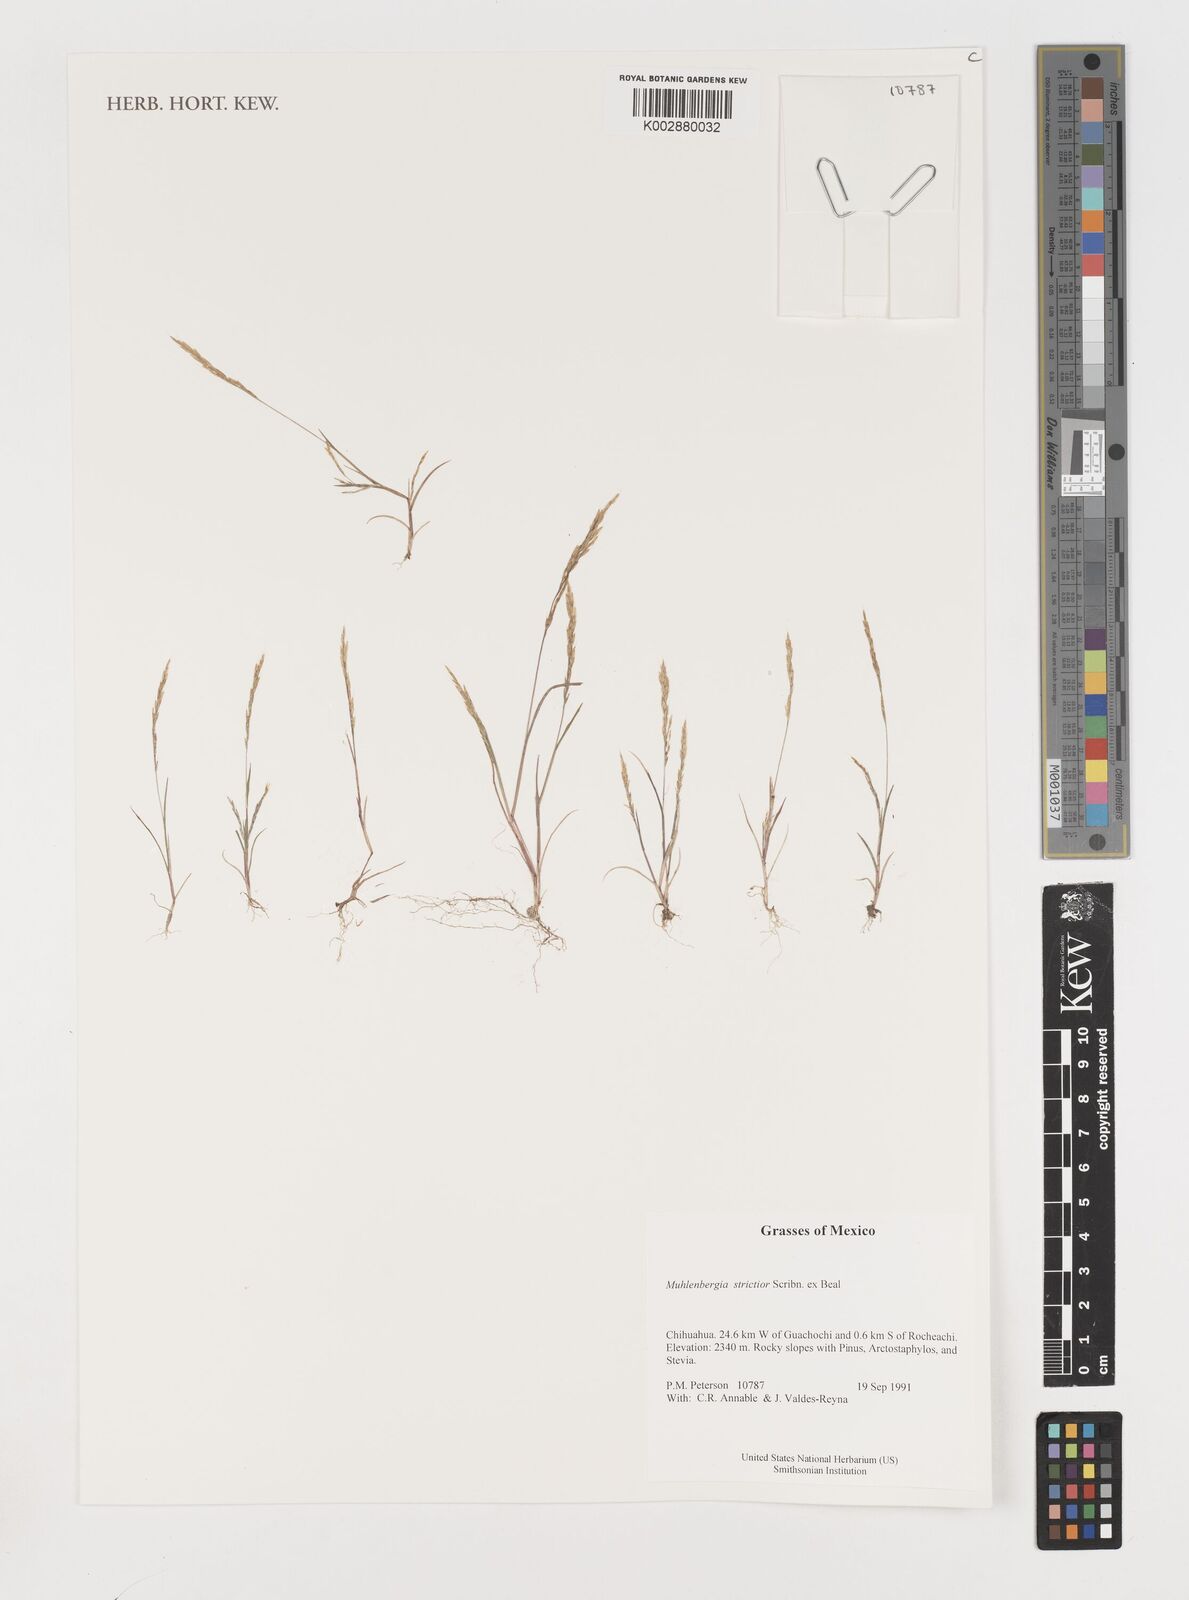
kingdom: Plantae
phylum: Tracheophyta
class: Liliopsida
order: Poales
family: Poaceae
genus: Muhlenbergia
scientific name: Muhlenbergia strictior
